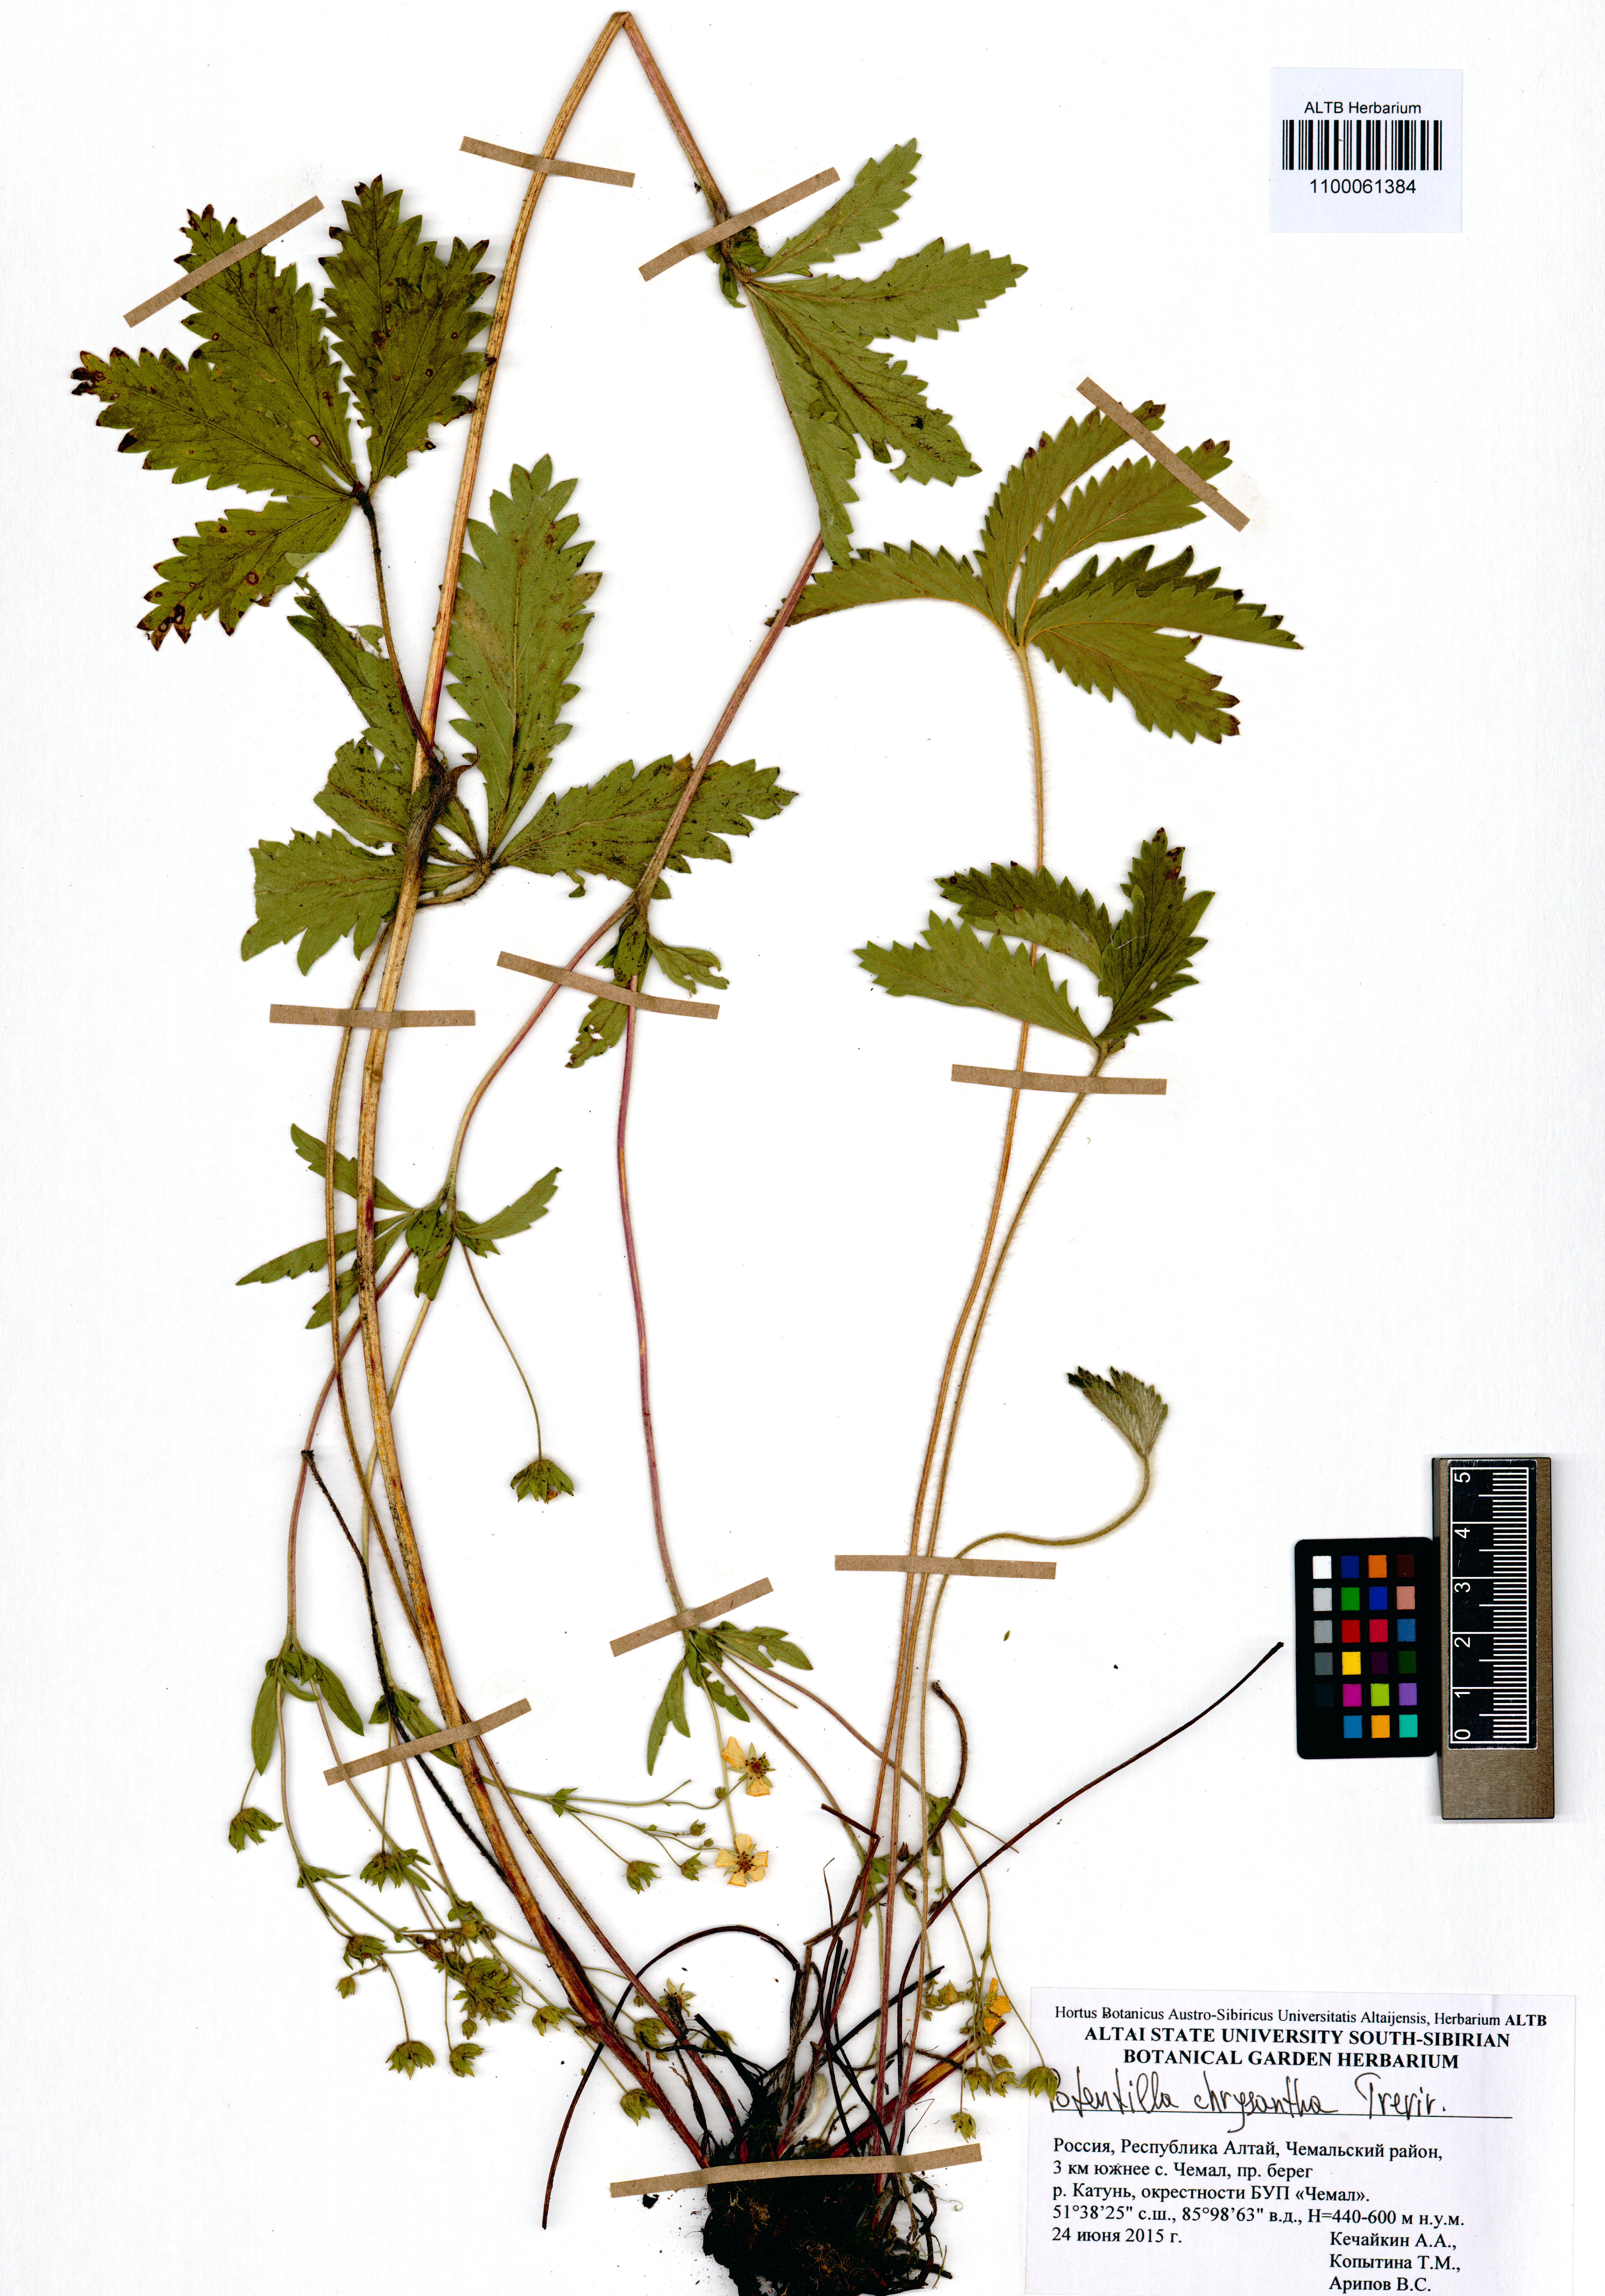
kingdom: Plantae
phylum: Tracheophyta
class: Magnoliopsida
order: Rosales
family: Rosaceae
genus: Potentilla
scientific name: Potentilla chrysantha
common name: Thuringian cinquefoil
